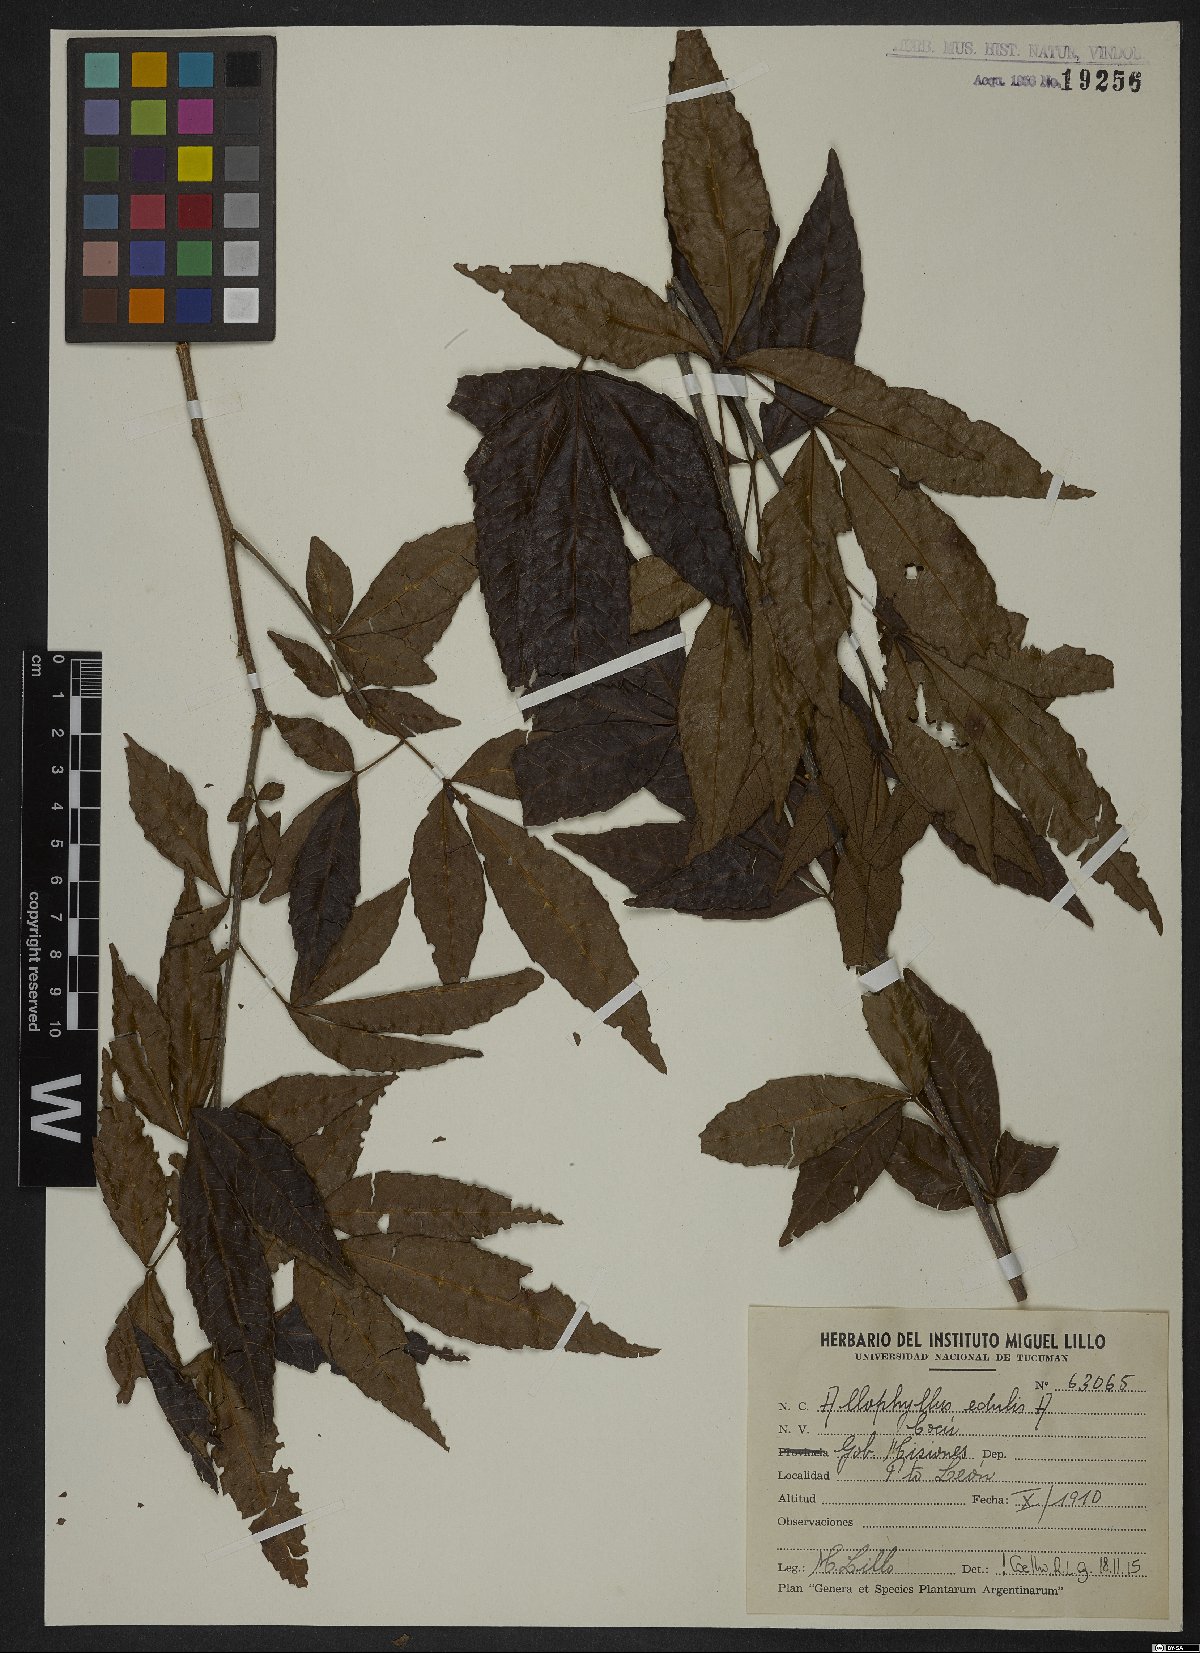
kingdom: Plantae
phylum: Tracheophyta
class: Magnoliopsida
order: Sapindales
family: Sapindaceae
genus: Allophylus
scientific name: Allophylus edulis
